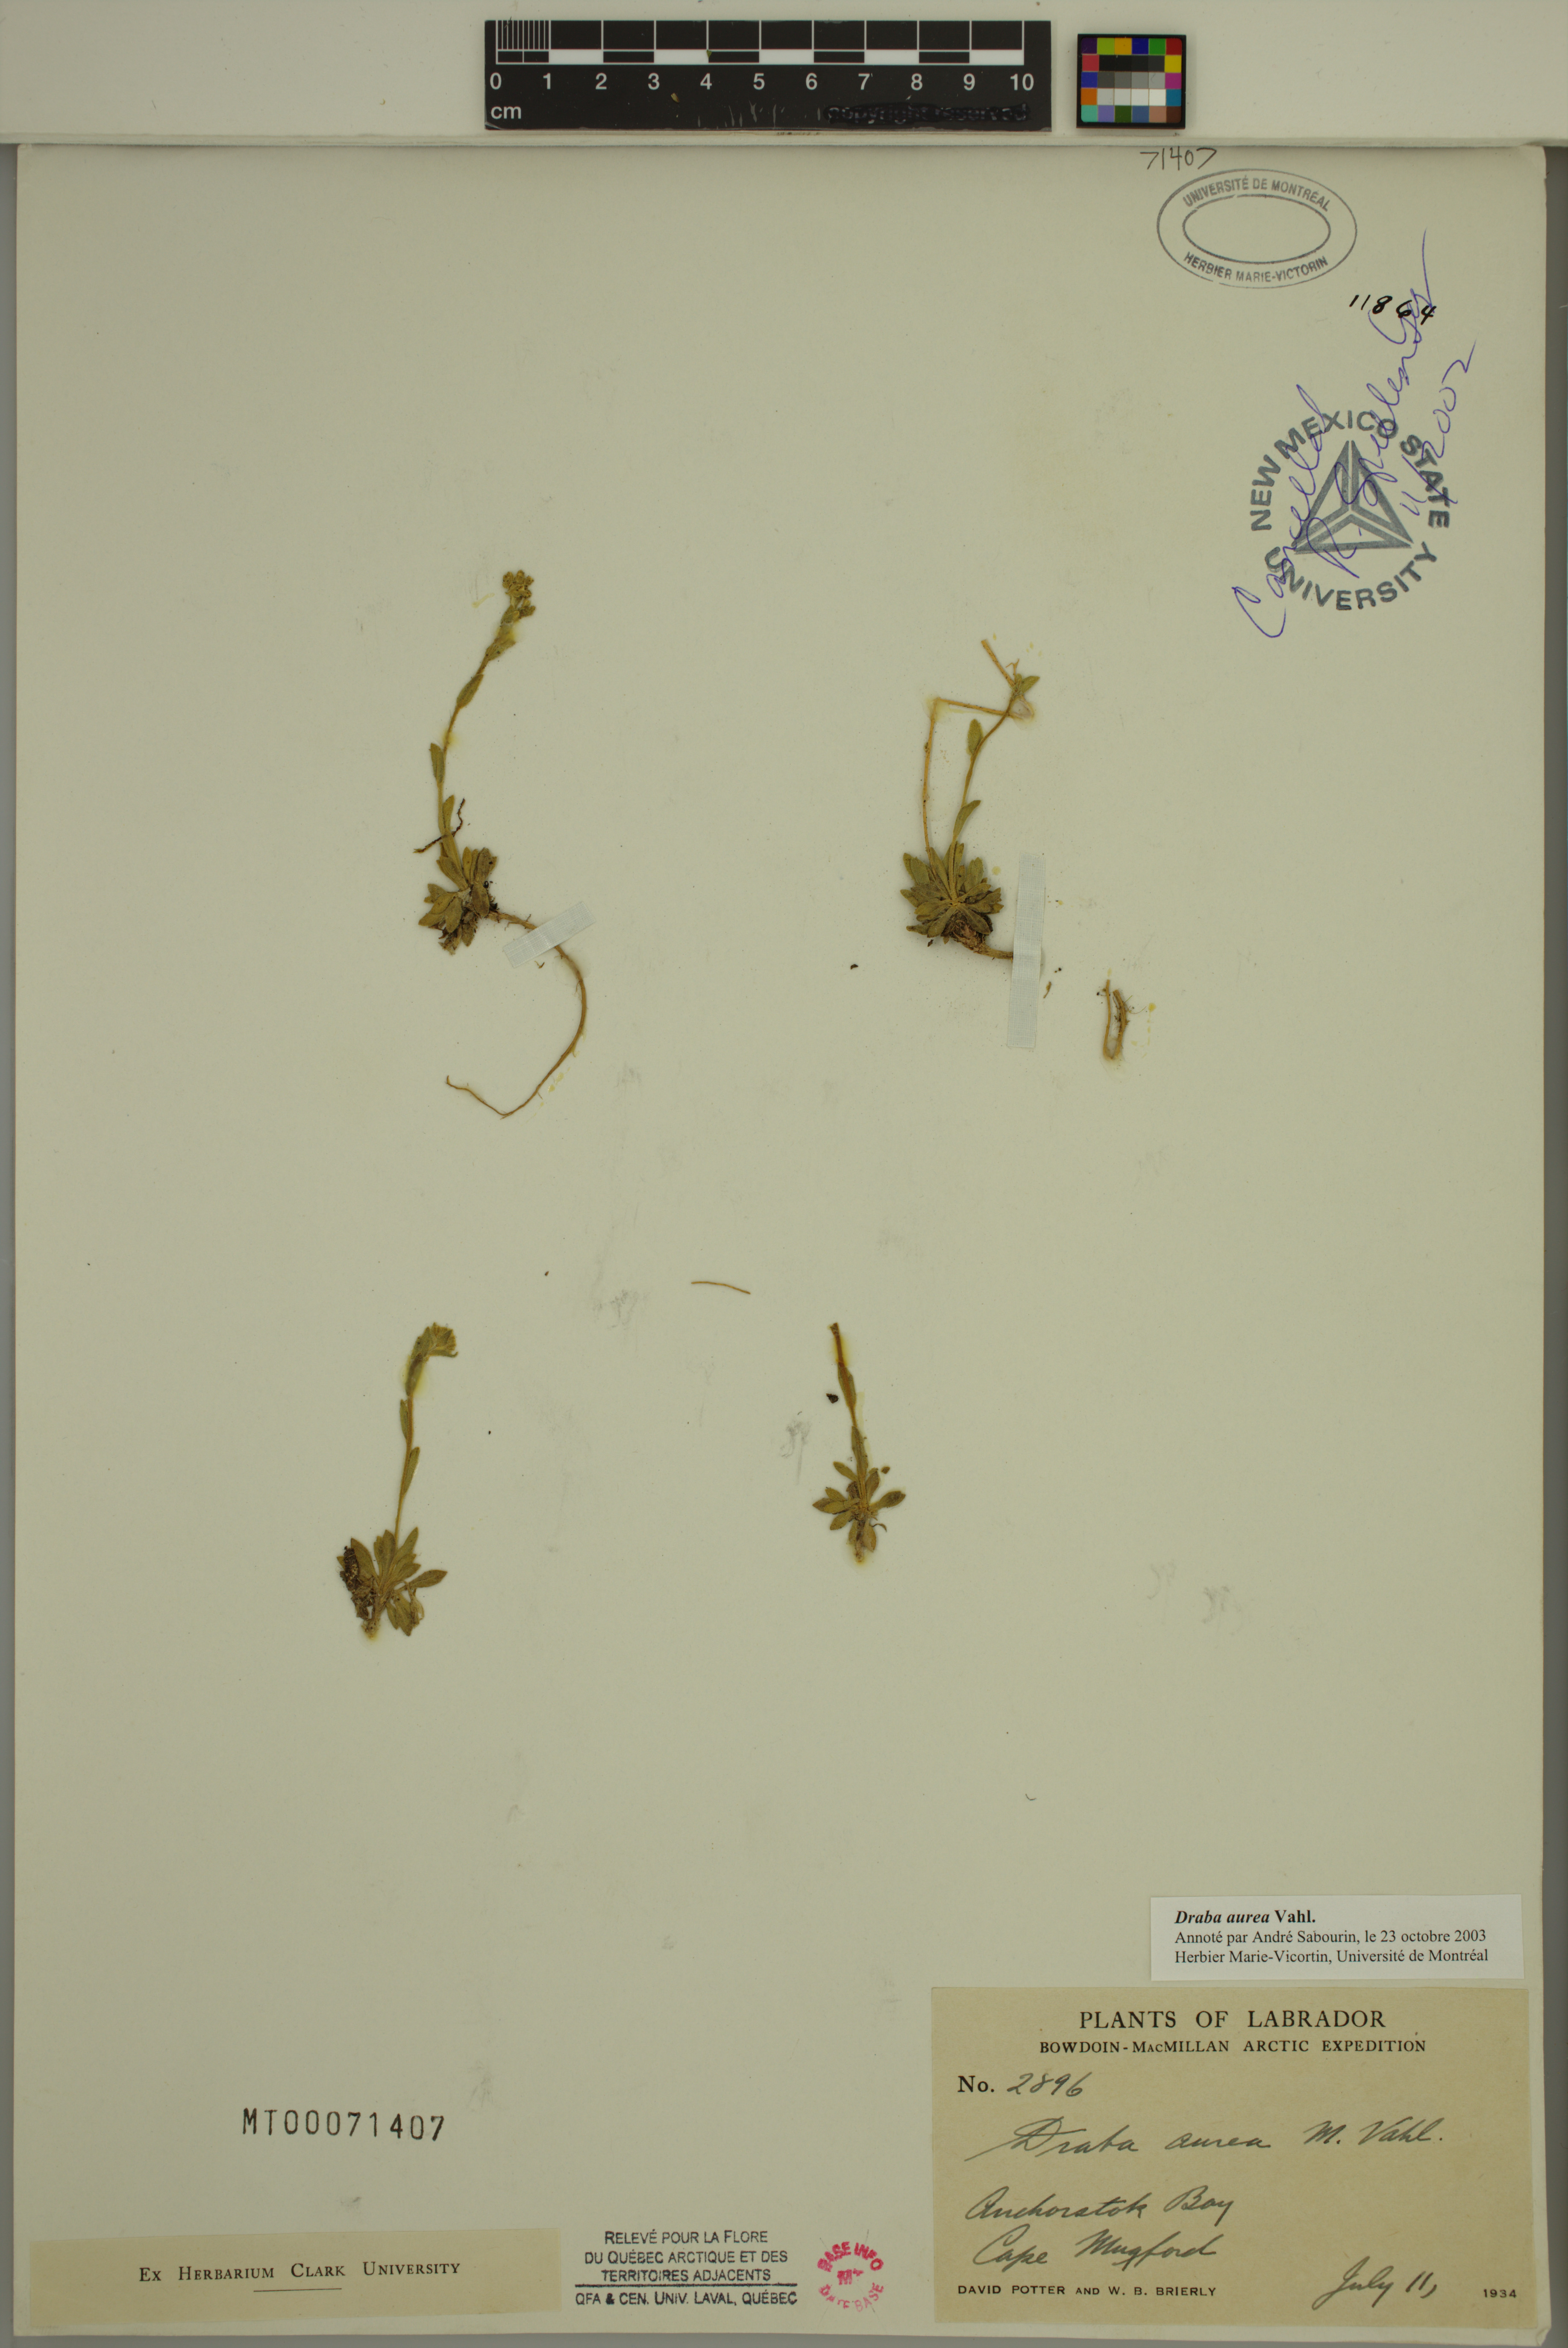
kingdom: Plantae
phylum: Tracheophyta
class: Magnoliopsida
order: Brassicales
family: Brassicaceae
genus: Draba
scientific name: Draba aurea
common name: Golden draba
